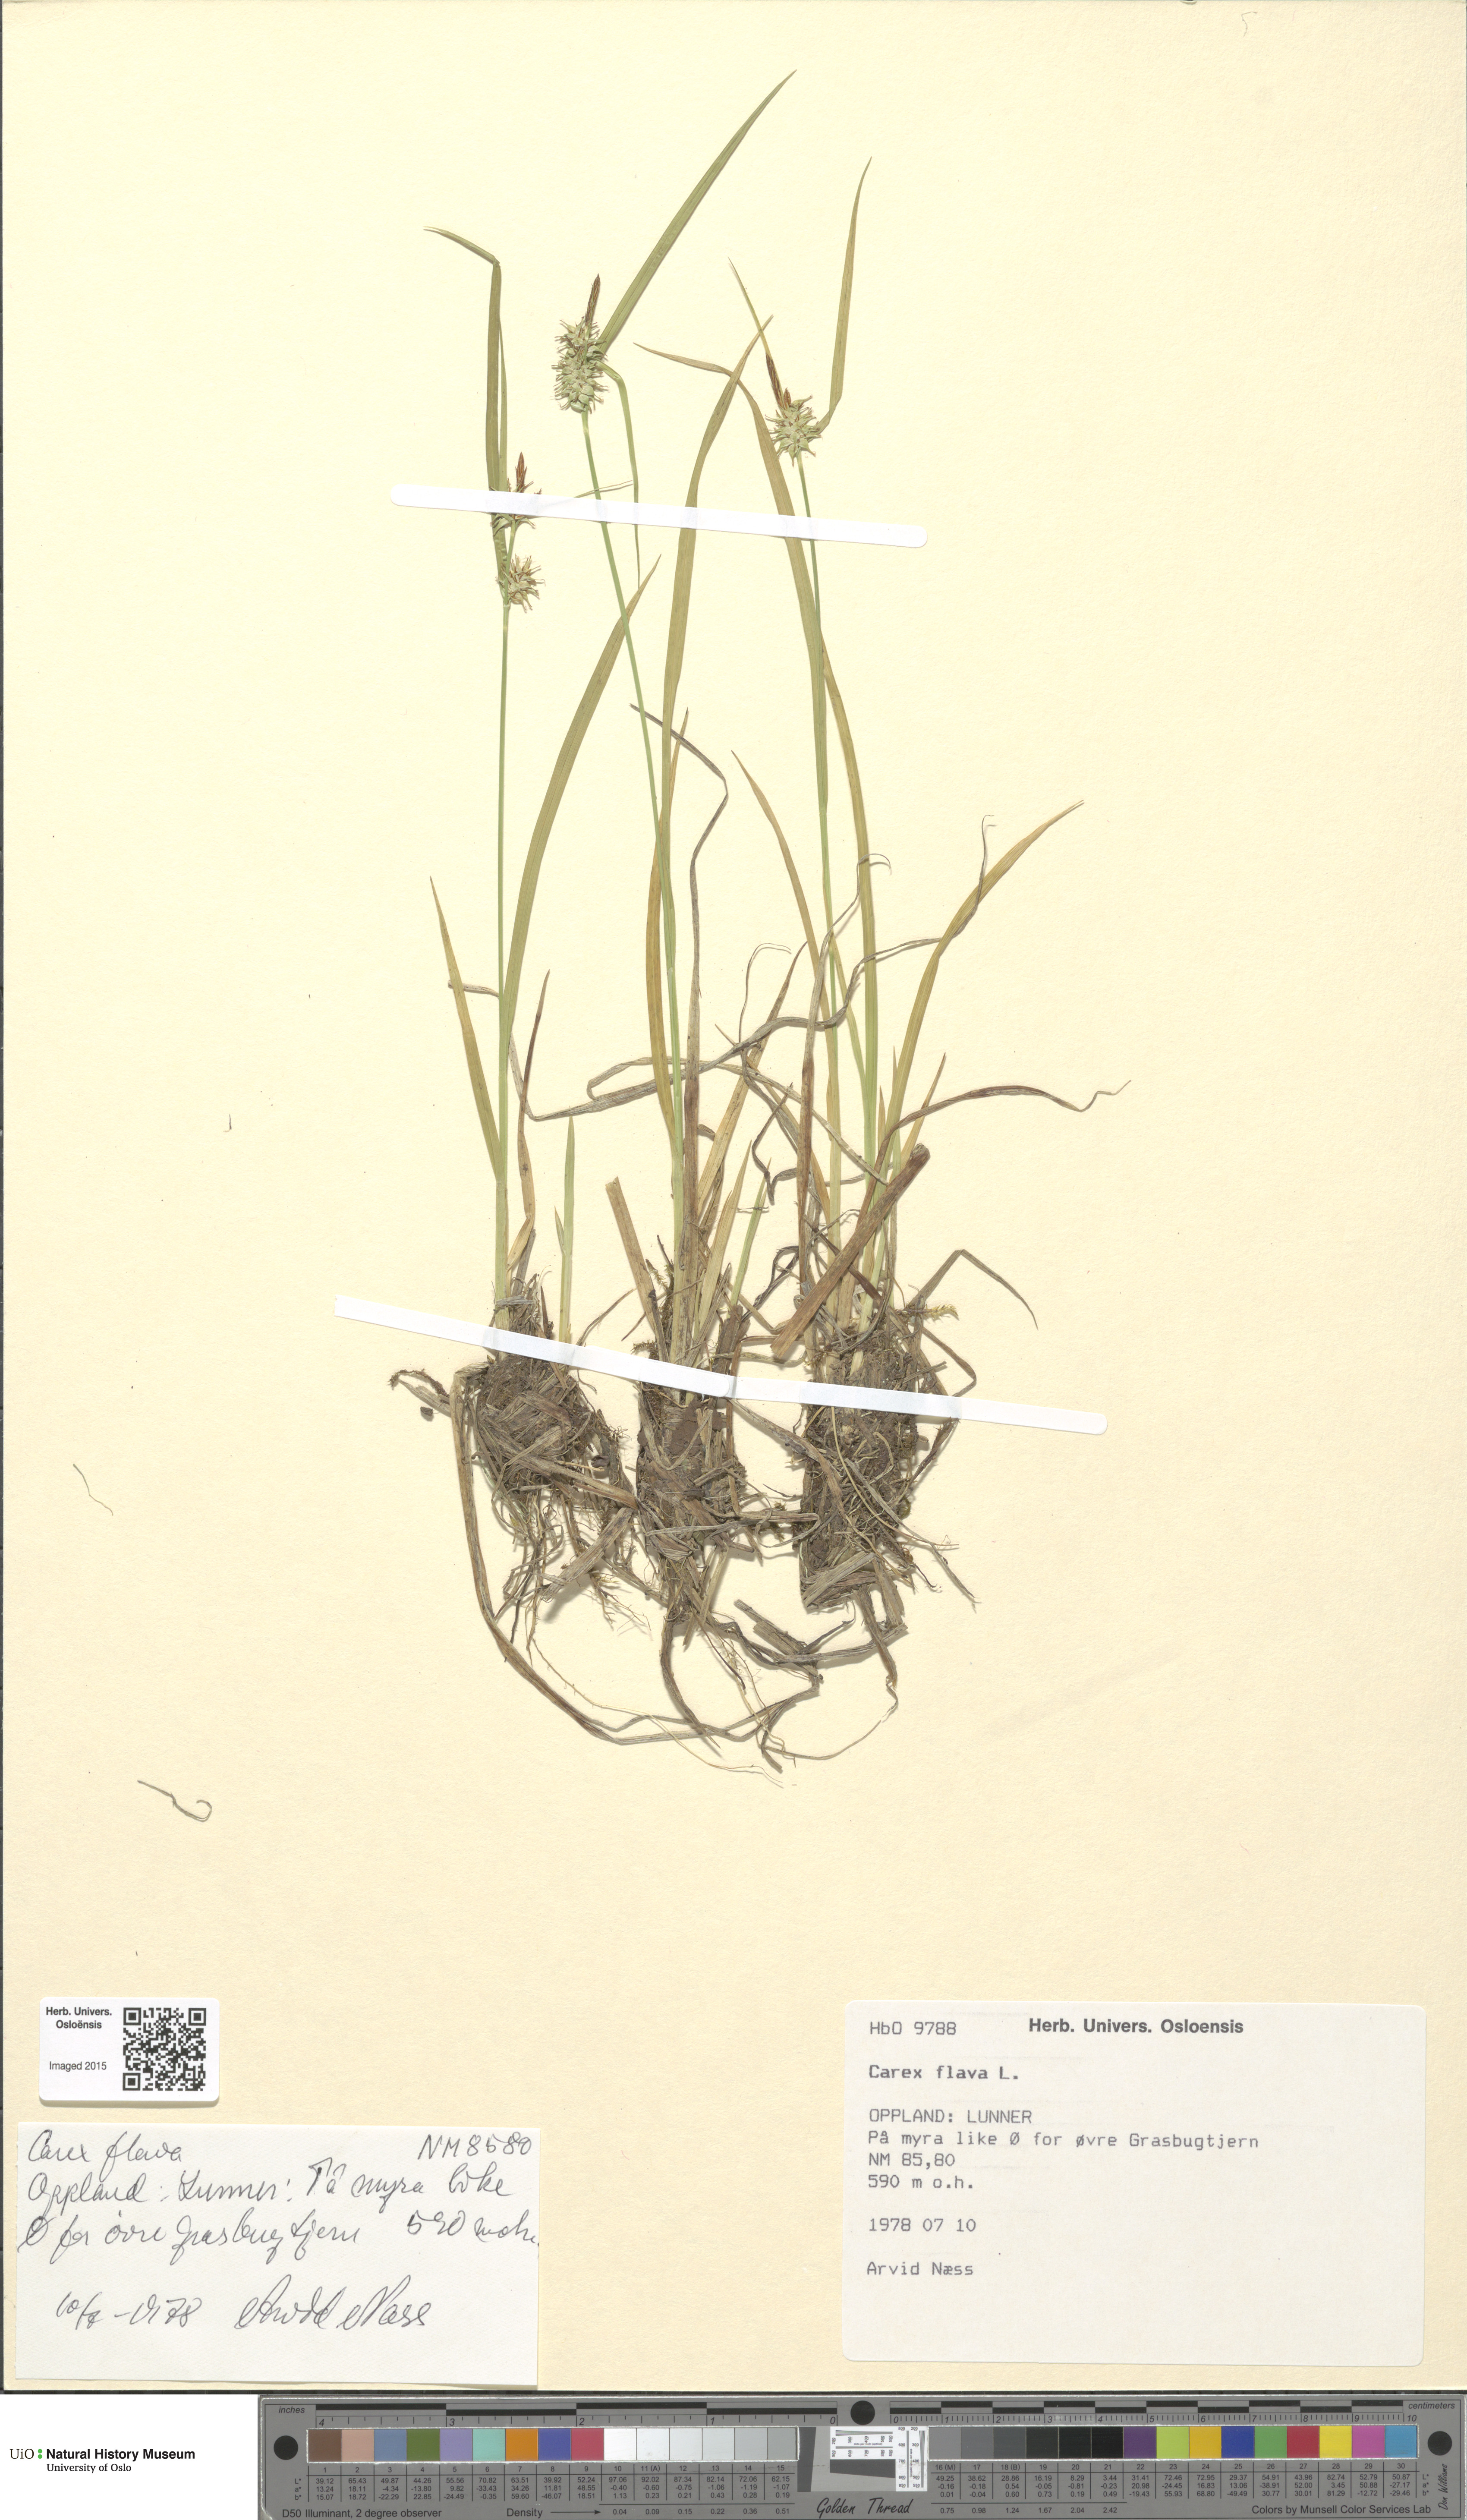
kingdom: Plantae
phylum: Tracheophyta
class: Liliopsida
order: Poales
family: Cyperaceae
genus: Carex
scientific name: Carex flava
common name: Large yellow-sedge
